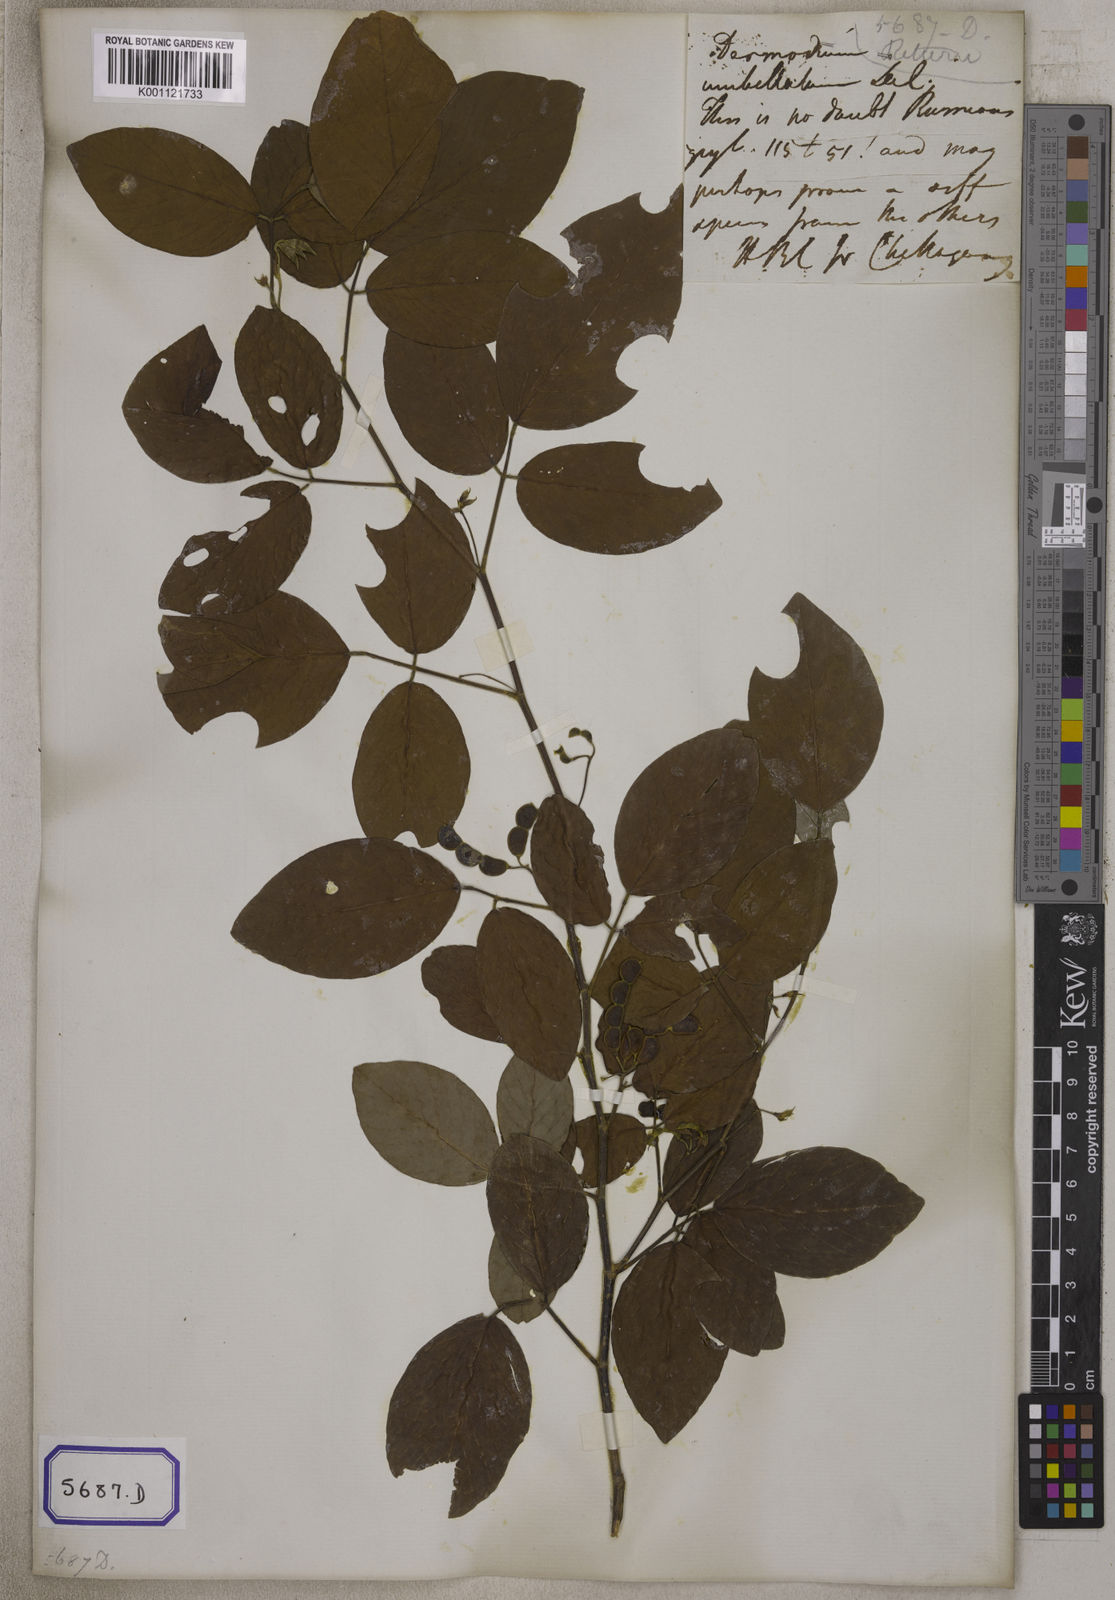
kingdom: Plantae
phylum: Tracheophyta
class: Magnoliopsida
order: Fabales
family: Fabaceae
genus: Dendrolobium
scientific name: Dendrolobium umbellatum
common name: Horsebush
